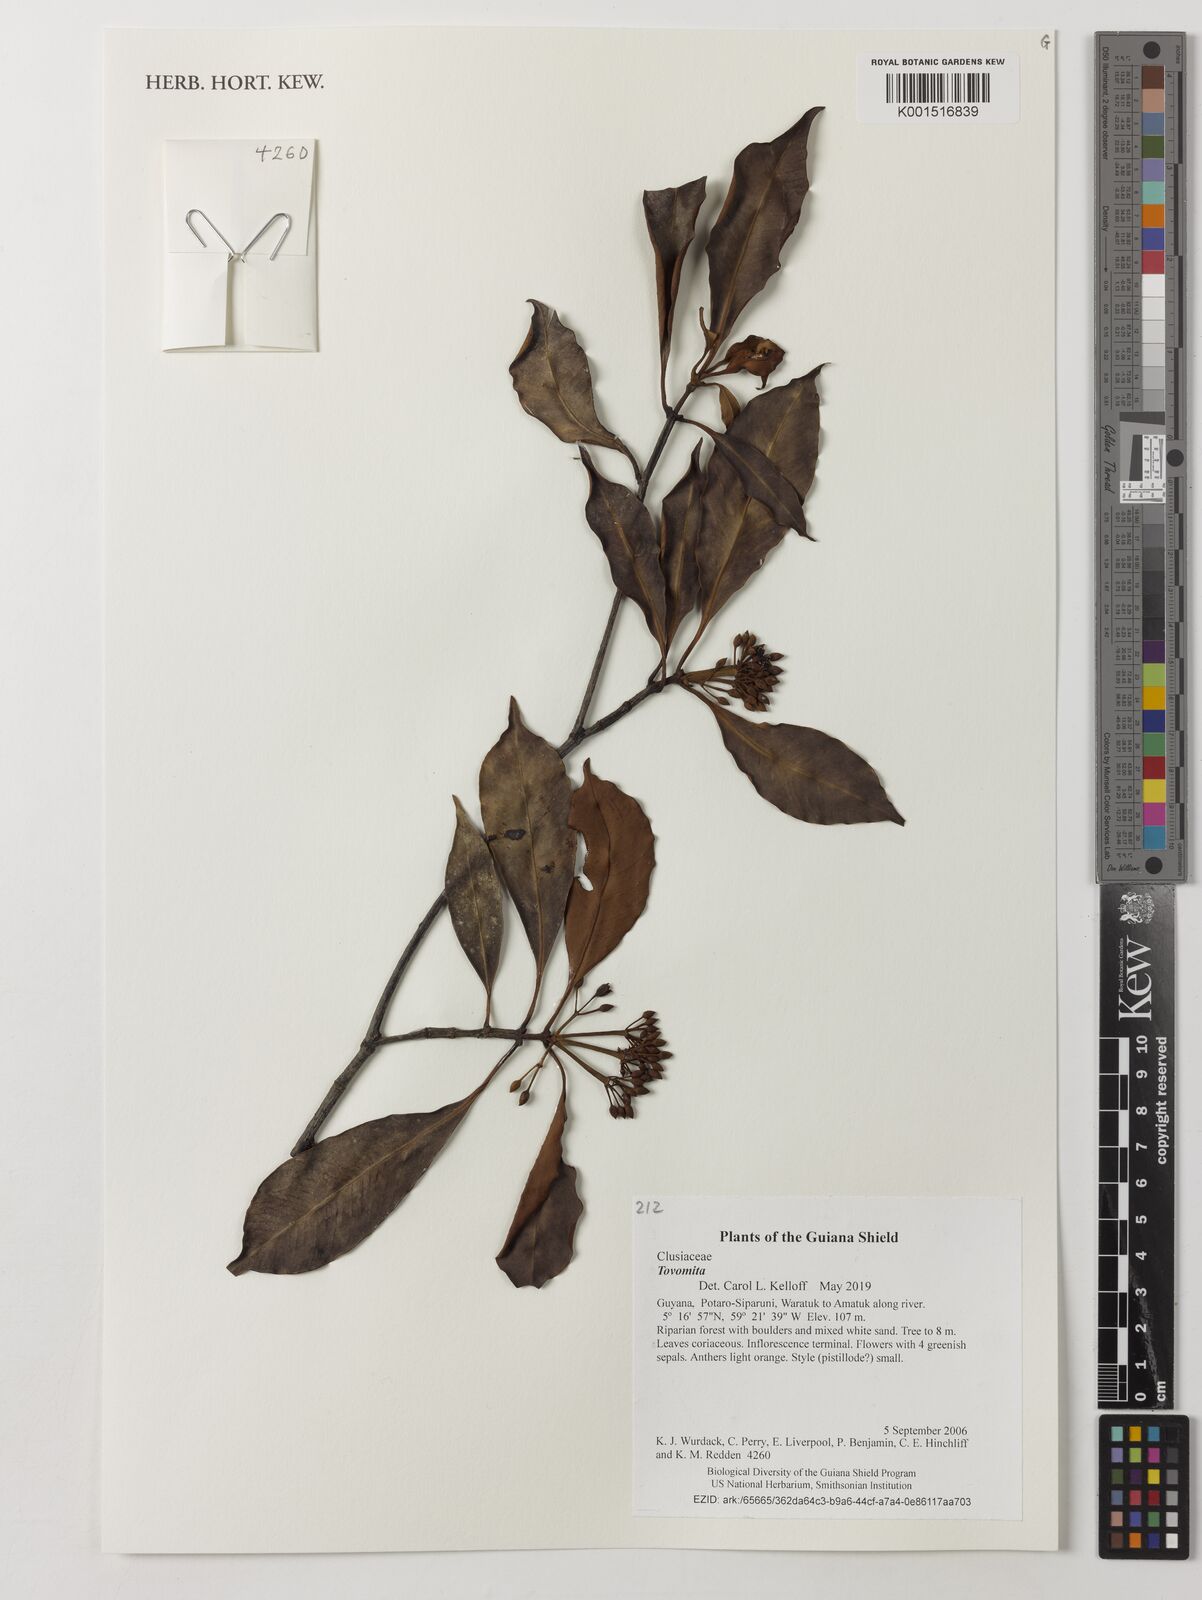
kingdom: Plantae
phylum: Tracheophyta
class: Magnoliopsida
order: Malpighiales
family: Clusiaceae
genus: Tovomita
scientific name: Tovomita
